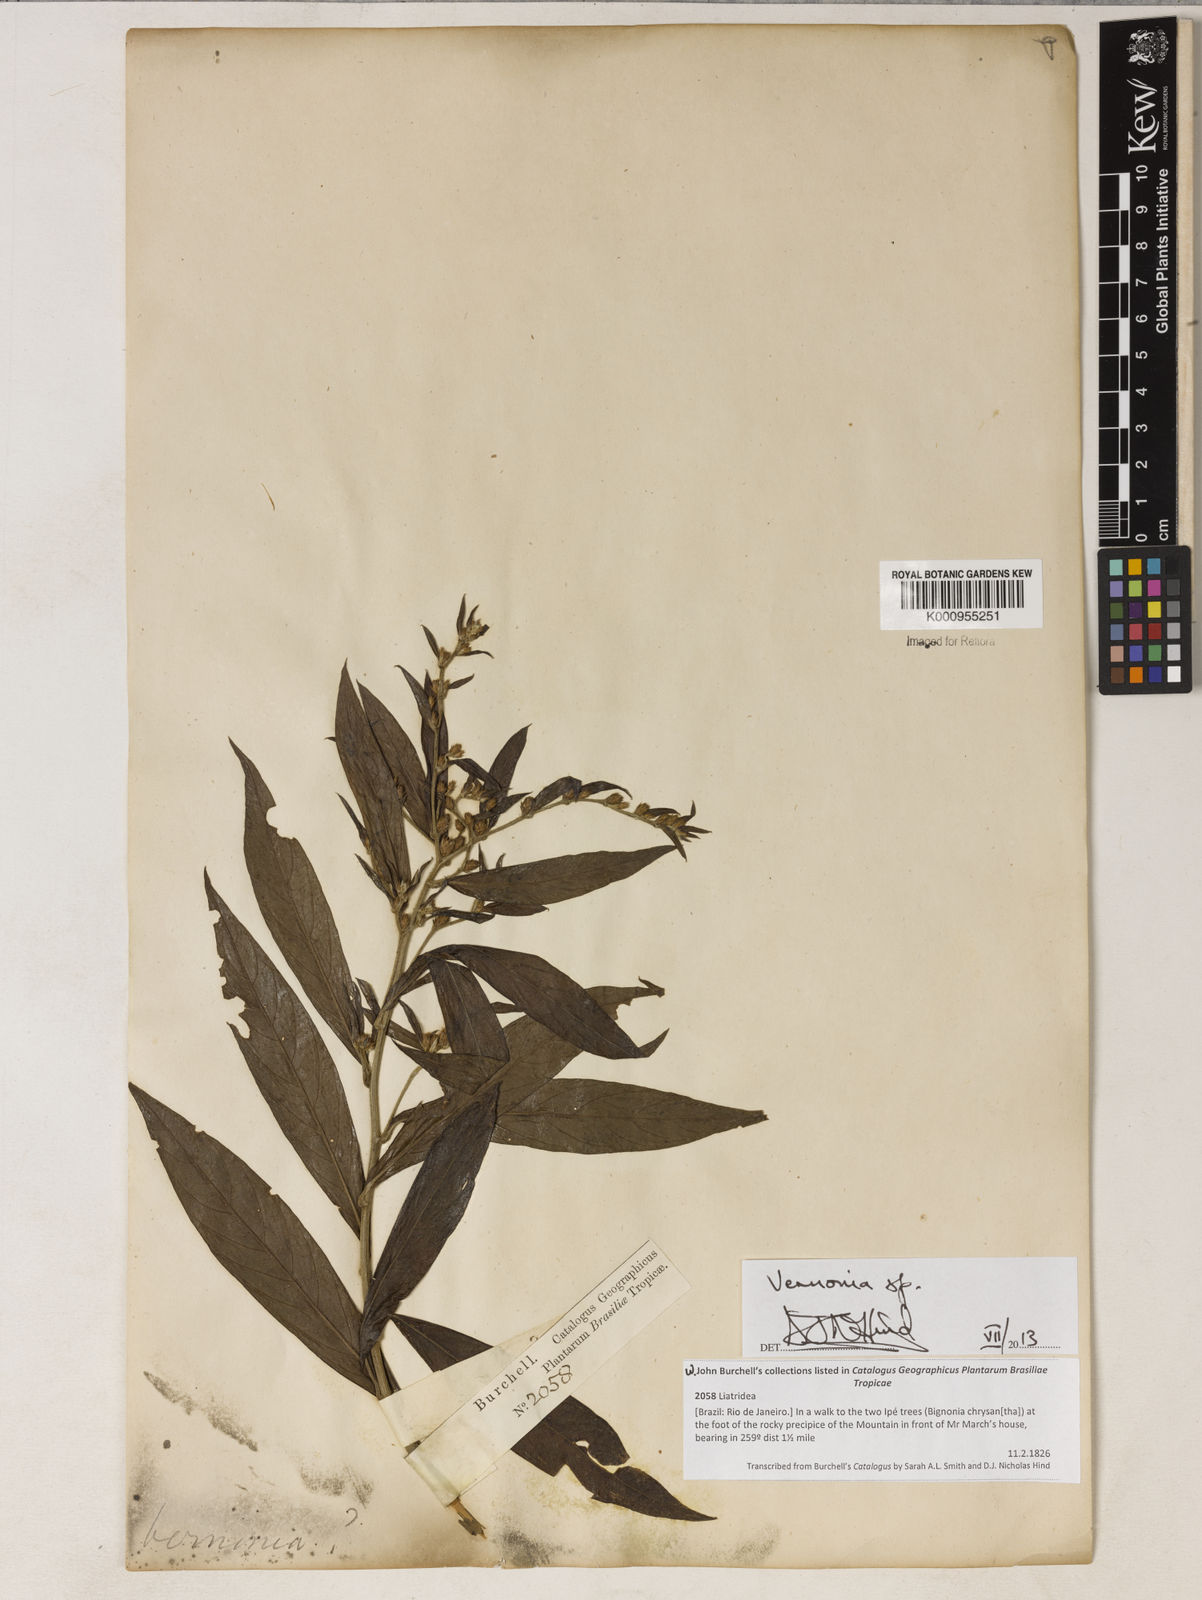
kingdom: Plantae
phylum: Tracheophyta
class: Magnoliopsida
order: Asterales
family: Asteraceae
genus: Vernonia
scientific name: Vernonia
